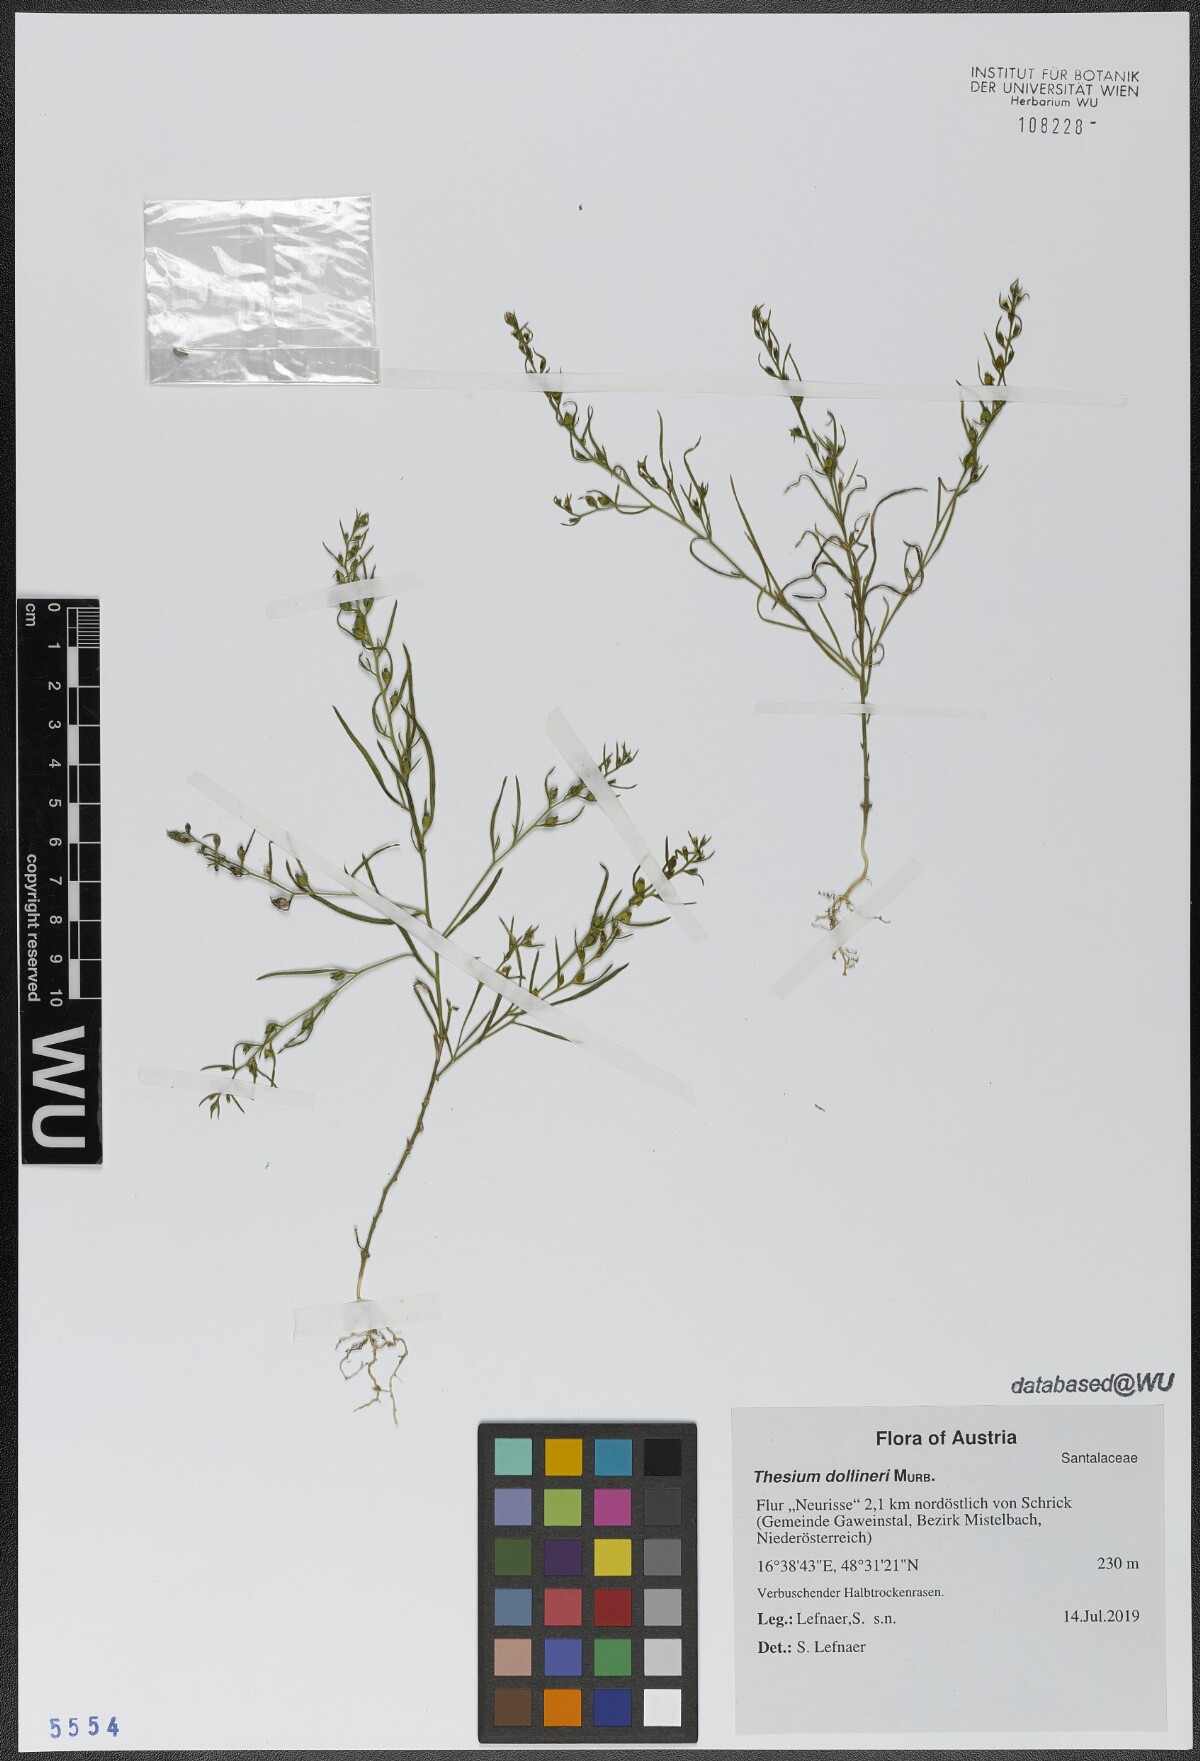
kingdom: Plantae
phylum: Tracheophyta
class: Magnoliopsida
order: Santalales
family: Thesiaceae
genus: Thesium
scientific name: Thesium dollineri
